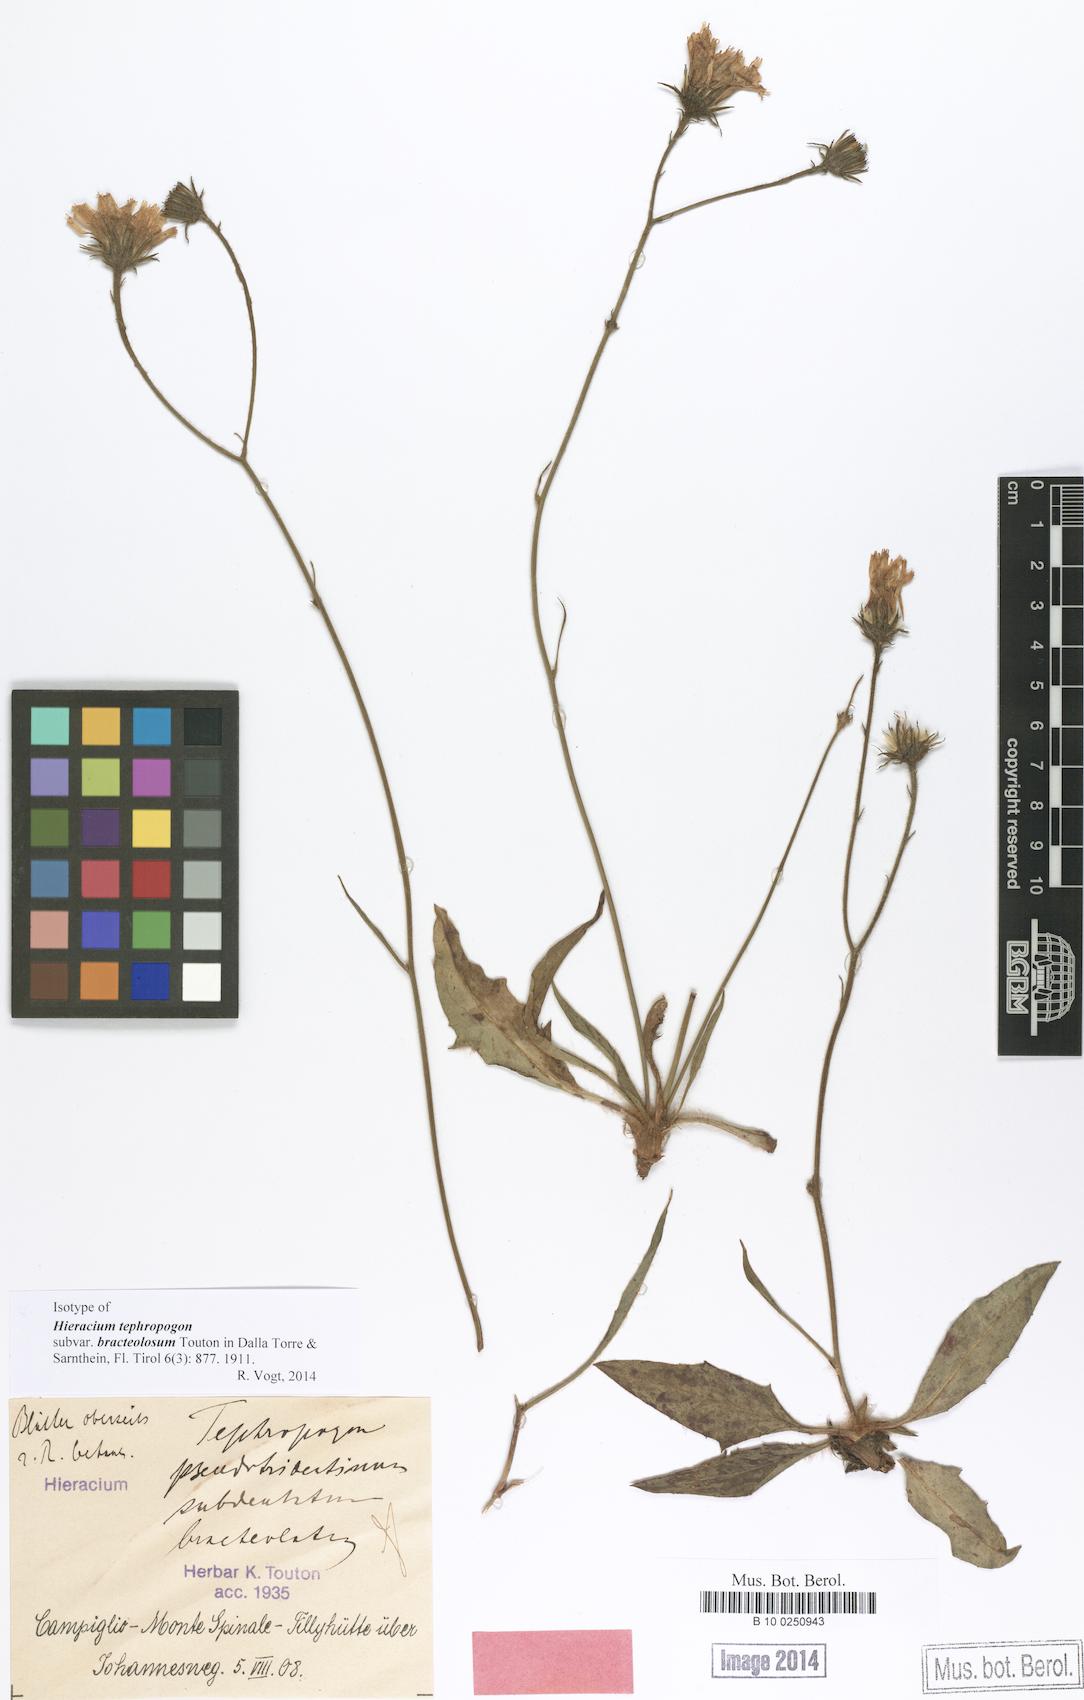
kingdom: Plantae
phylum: Tracheophyta
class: Magnoliopsida
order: Asterales
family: Asteraceae
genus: Hieracium
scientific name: Hieracium tephropogon
